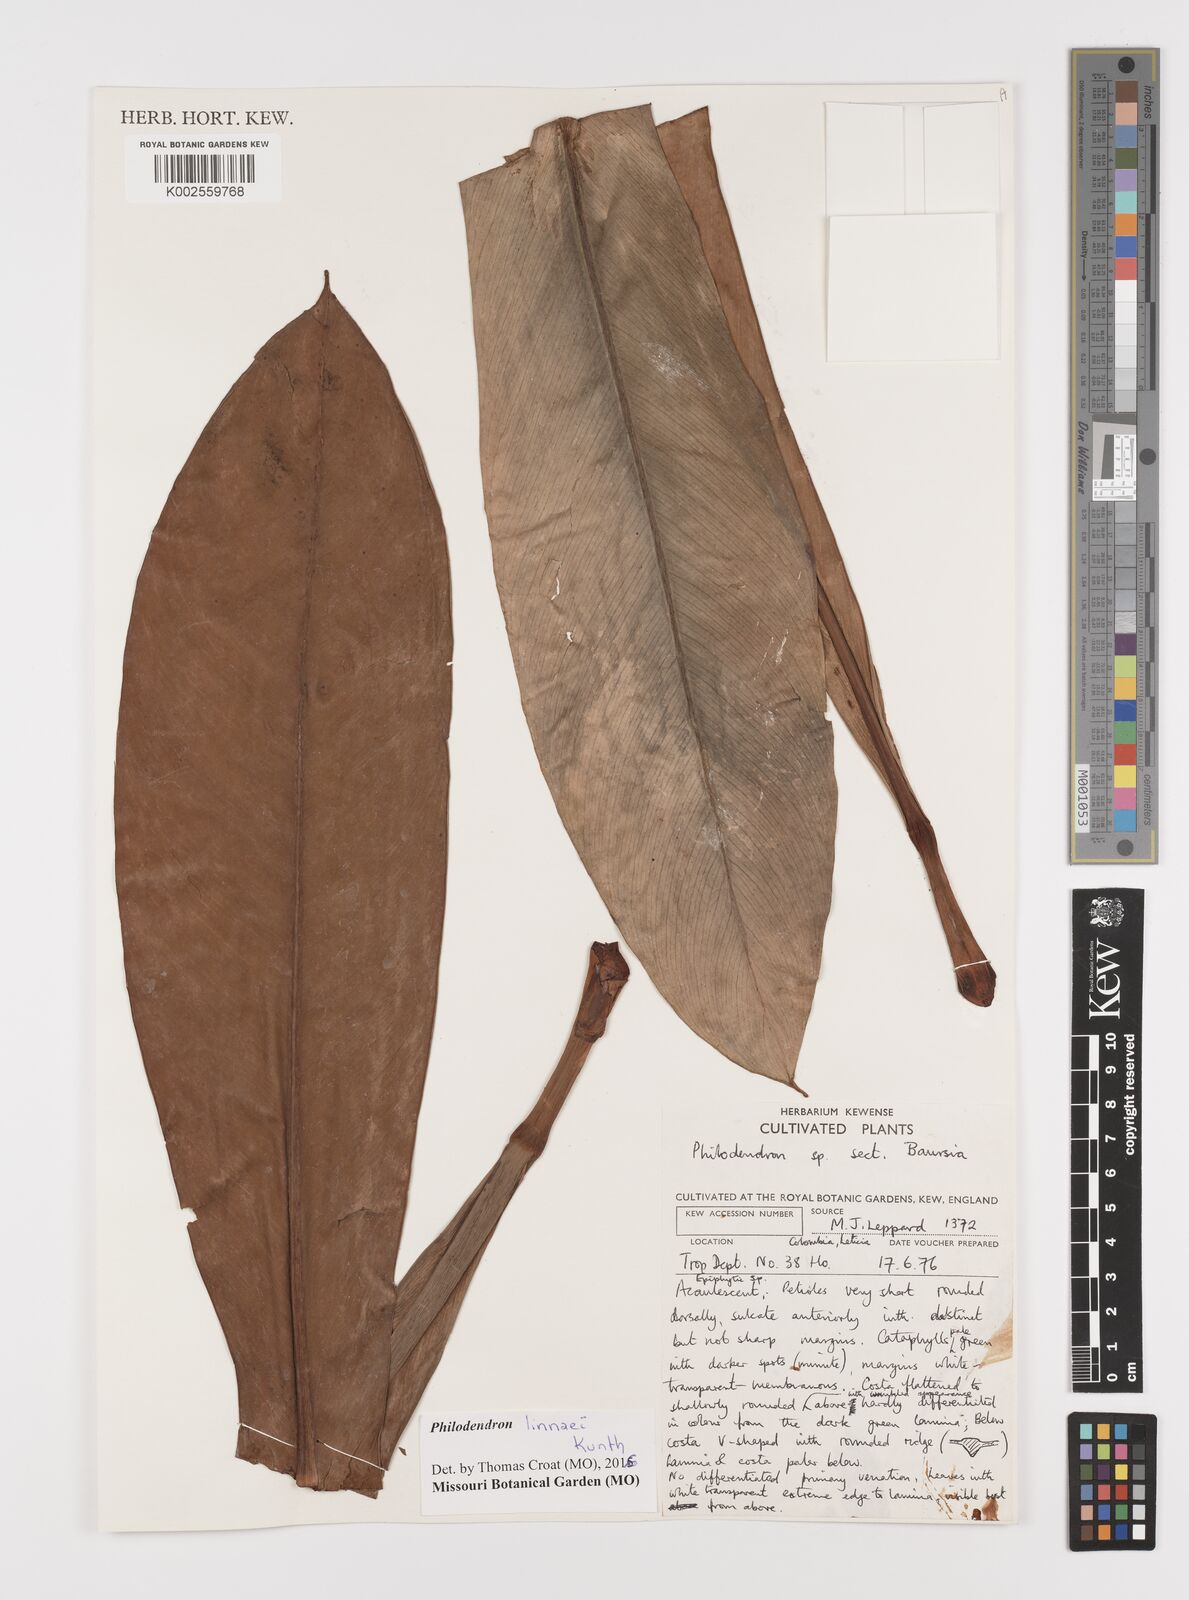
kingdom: Plantae
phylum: Tracheophyta
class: Liliopsida
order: Alismatales
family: Araceae
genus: Philodendron
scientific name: Philodendron linnaei
